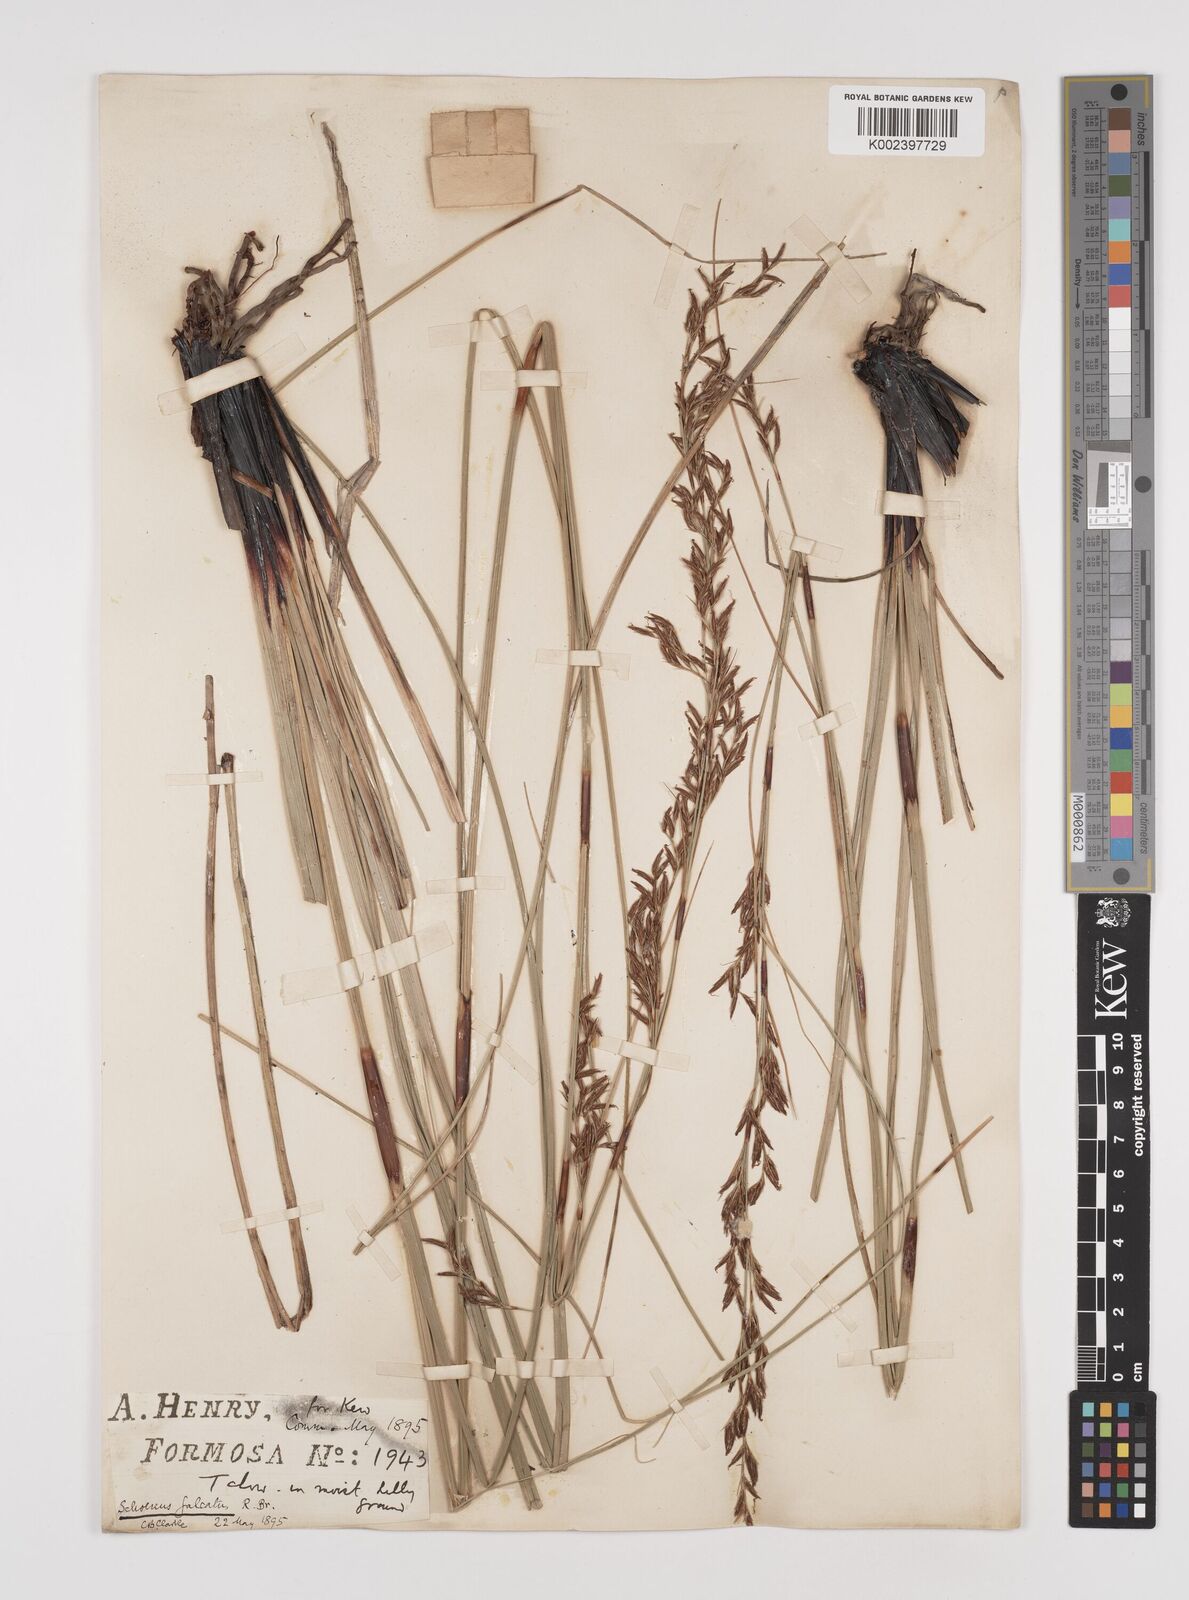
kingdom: Plantae
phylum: Tracheophyta
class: Liliopsida
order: Poales
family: Cyperaceae
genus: Schoenus
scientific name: Schoenus falcatus
